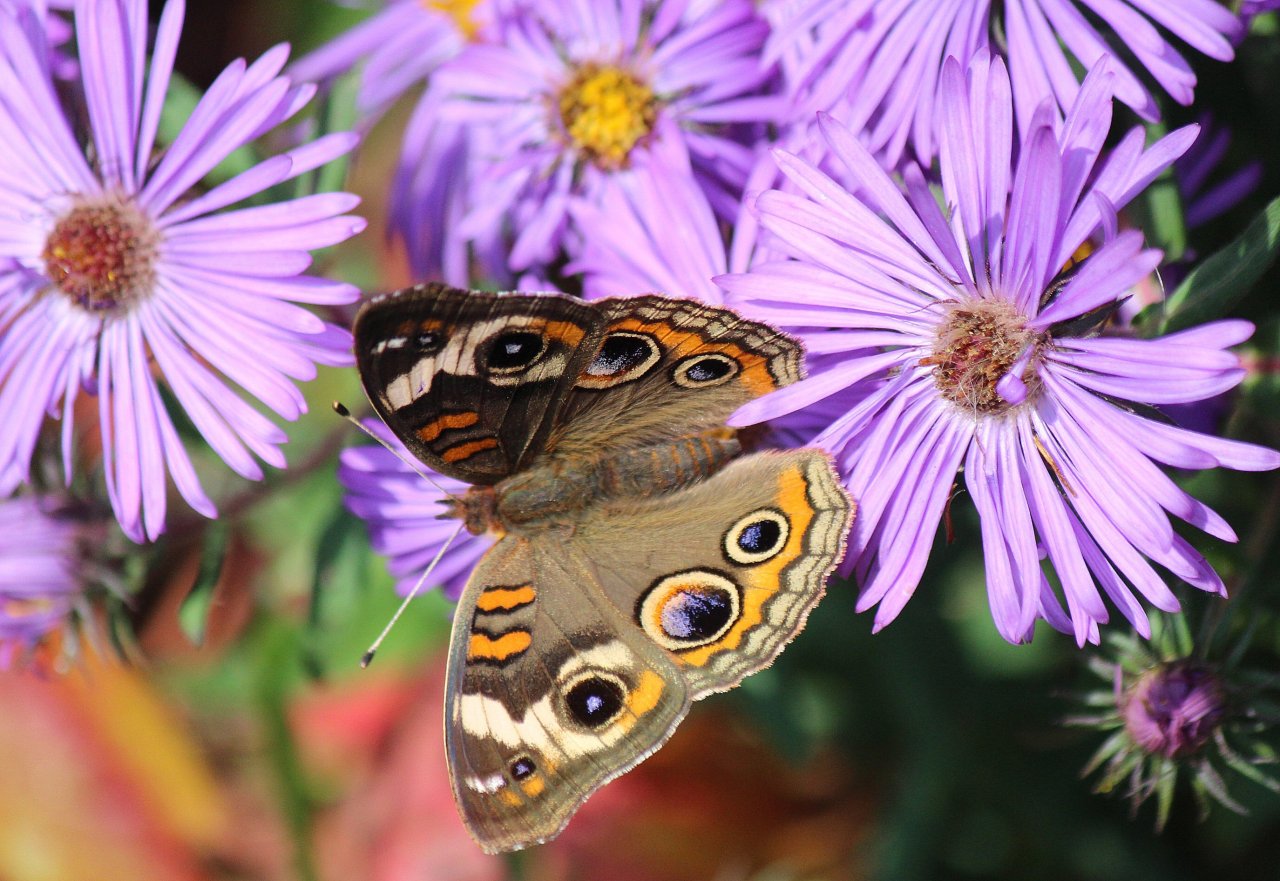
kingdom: Animalia
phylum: Arthropoda
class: Insecta
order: Lepidoptera
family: Nymphalidae
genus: Junonia
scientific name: Junonia coenia
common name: Common Buckeye
